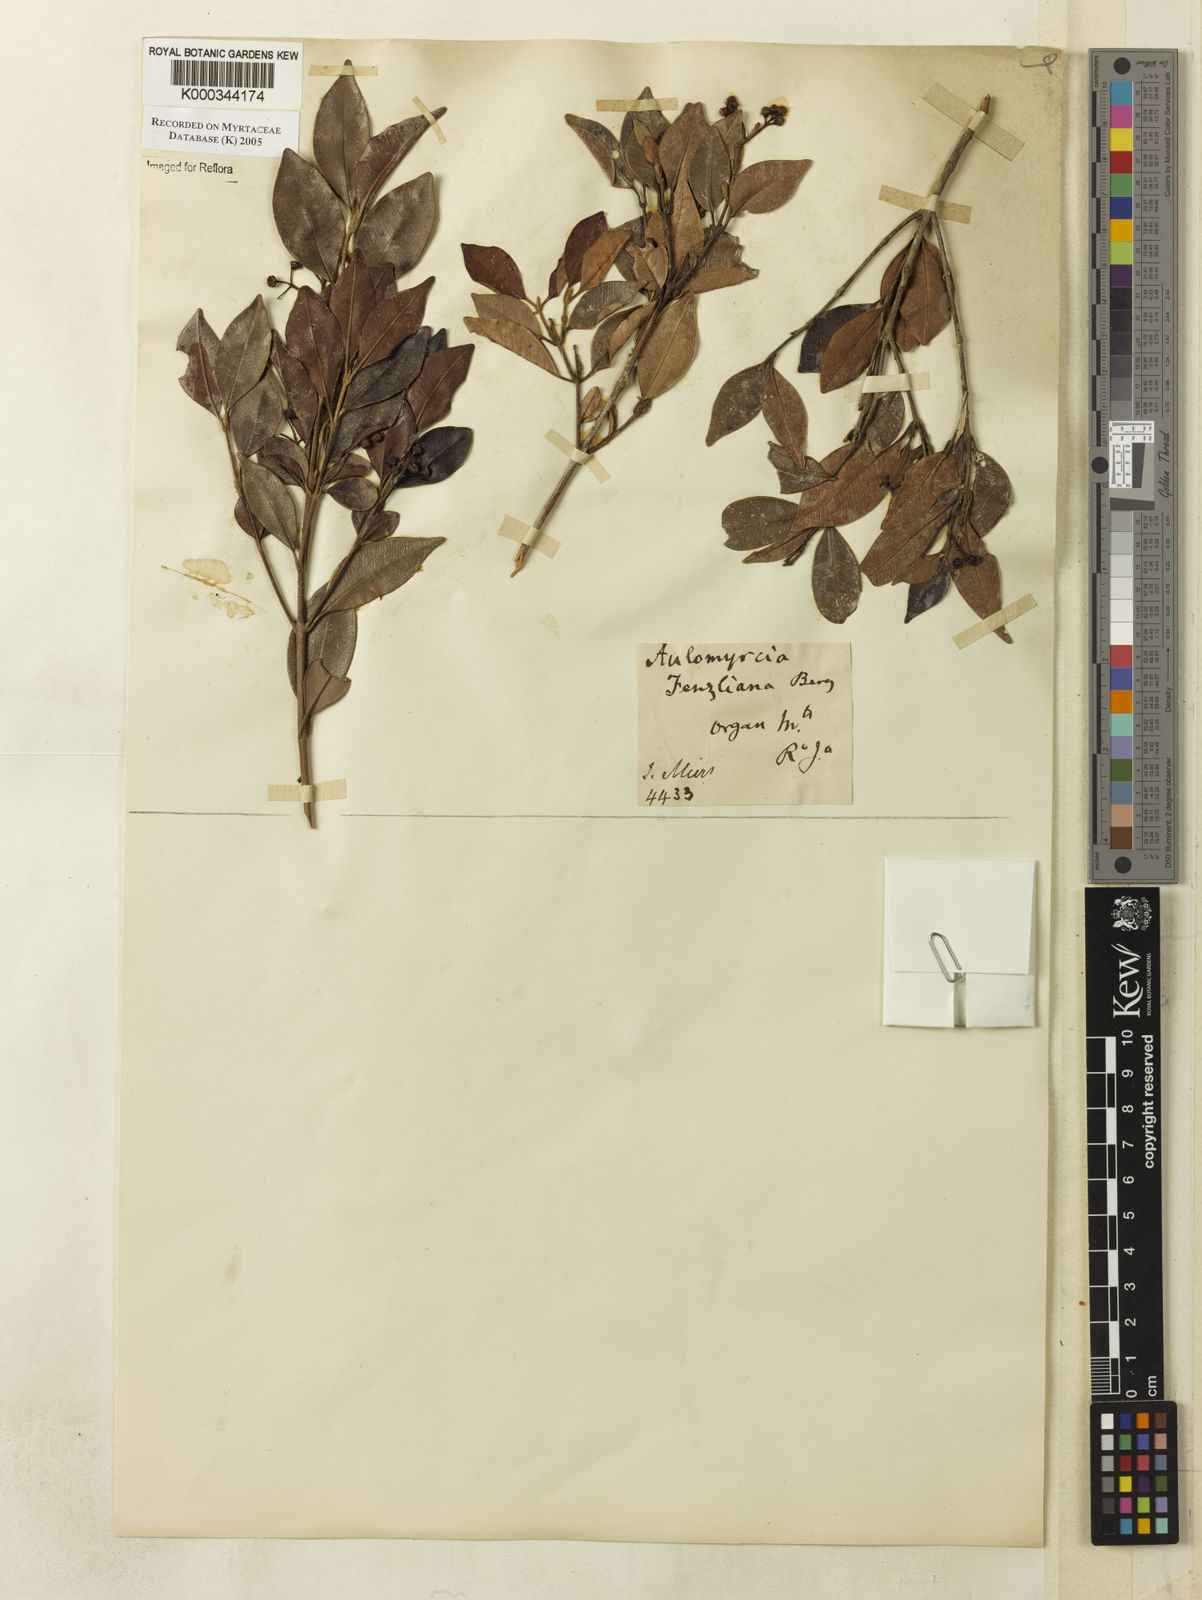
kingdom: Plantae
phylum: Tracheophyta
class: Magnoliopsida
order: Myrtales
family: Myrtaceae
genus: Myrcia
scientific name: Myrcia richardiana
